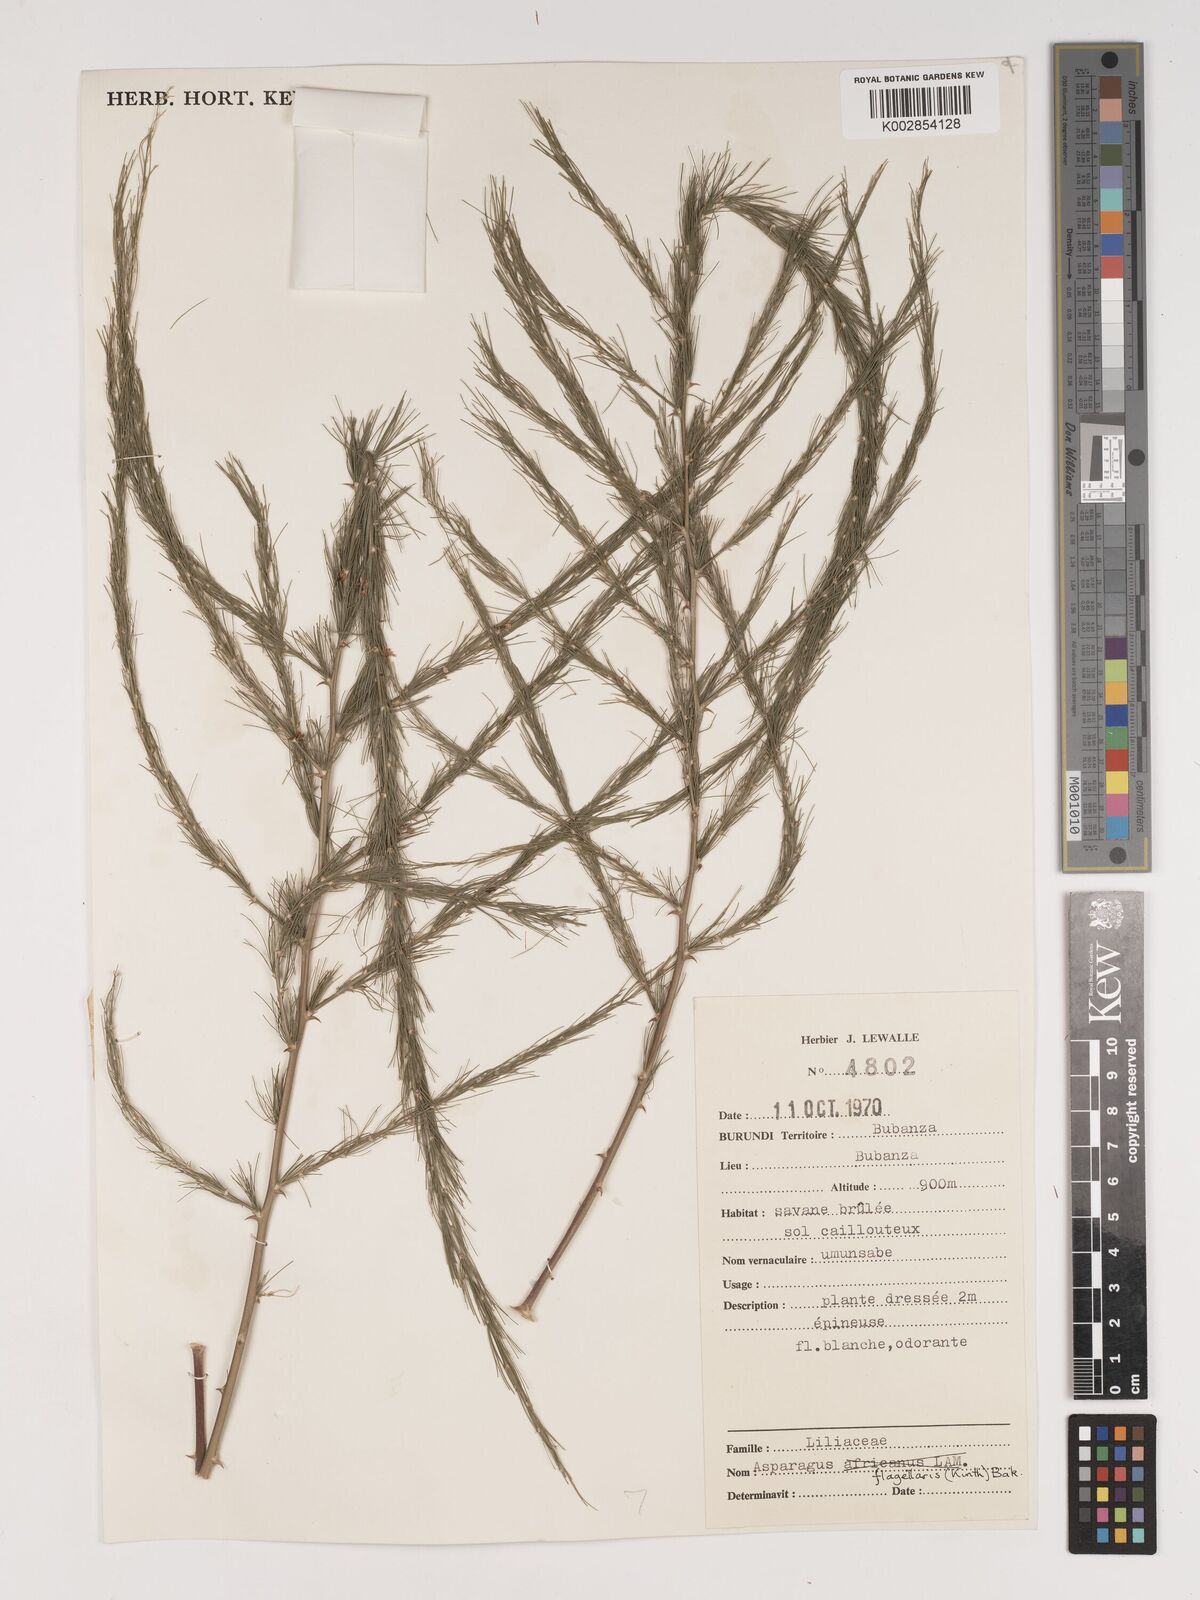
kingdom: Plantae
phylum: Tracheophyta
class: Liliopsida
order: Asparagales
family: Asparagaceae
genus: Asparagus
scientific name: Asparagus flagellaris
